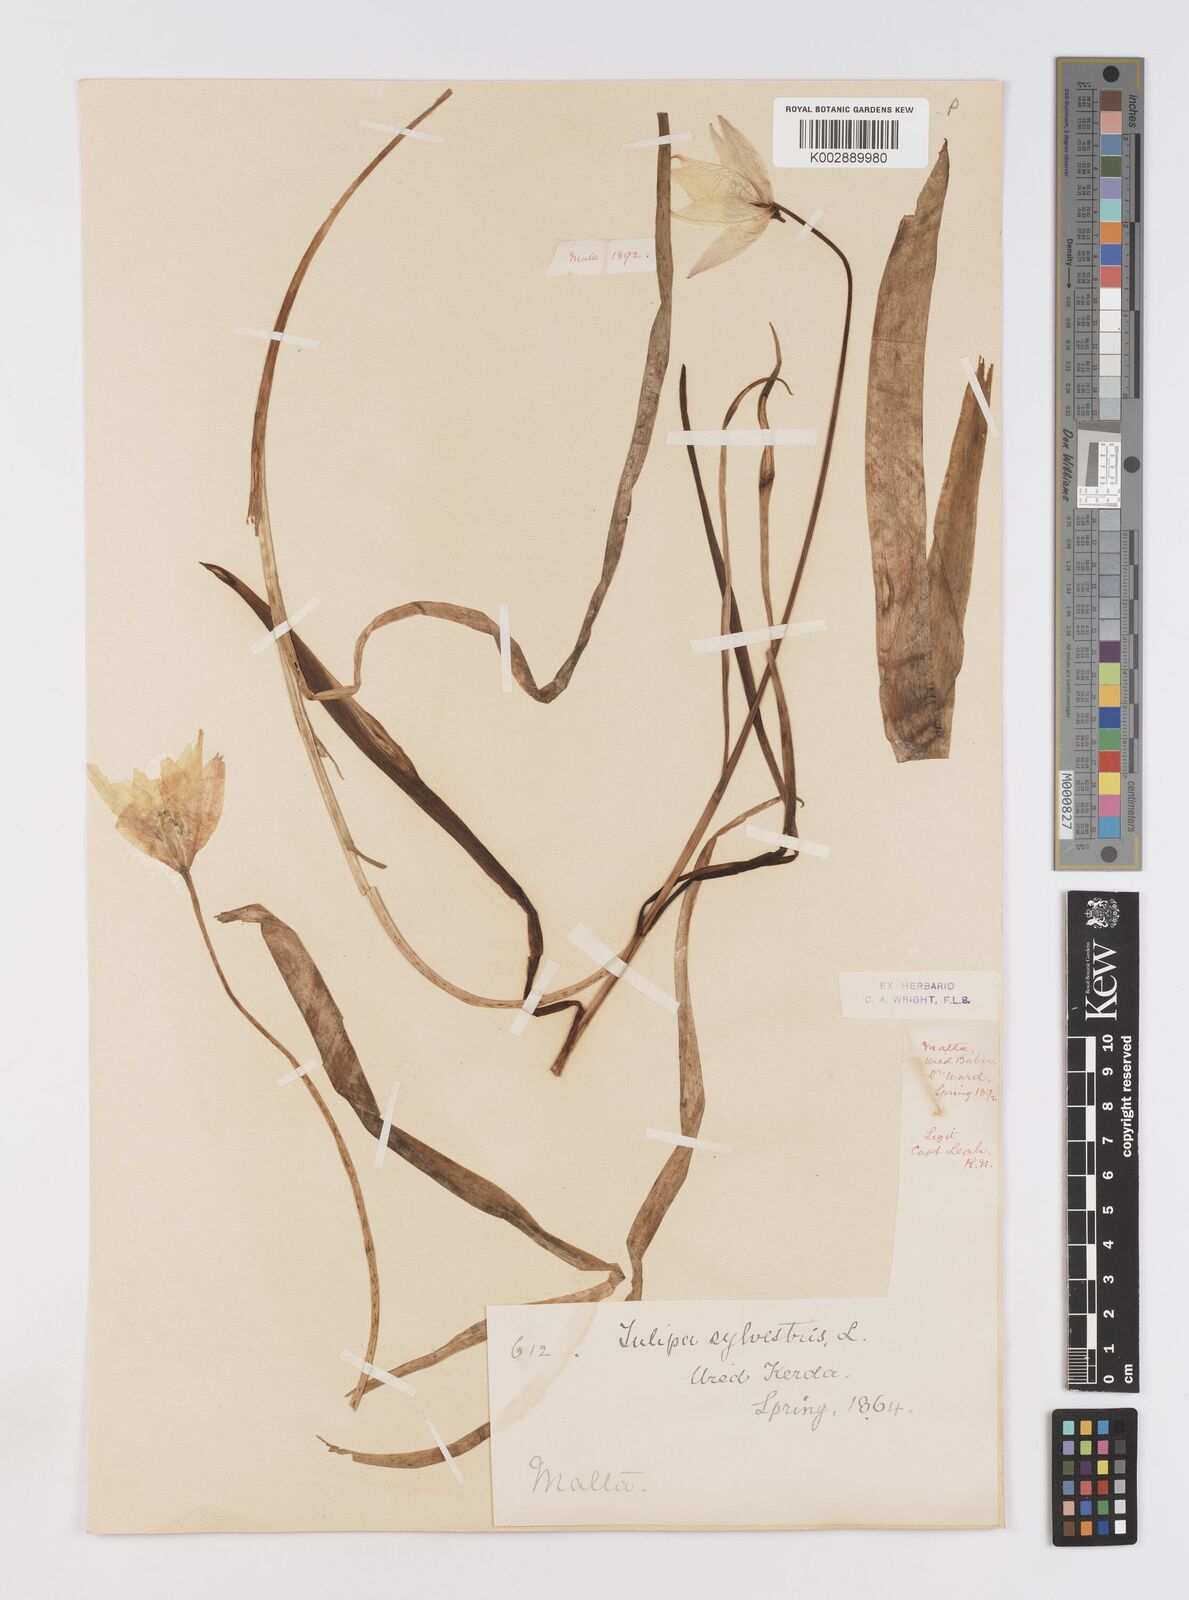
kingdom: Plantae
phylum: Tracheophyta
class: Liliopsida
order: Liliales
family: Liliaceae
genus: Tulipa
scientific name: Tulipa sylvestris
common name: Wild tulip
